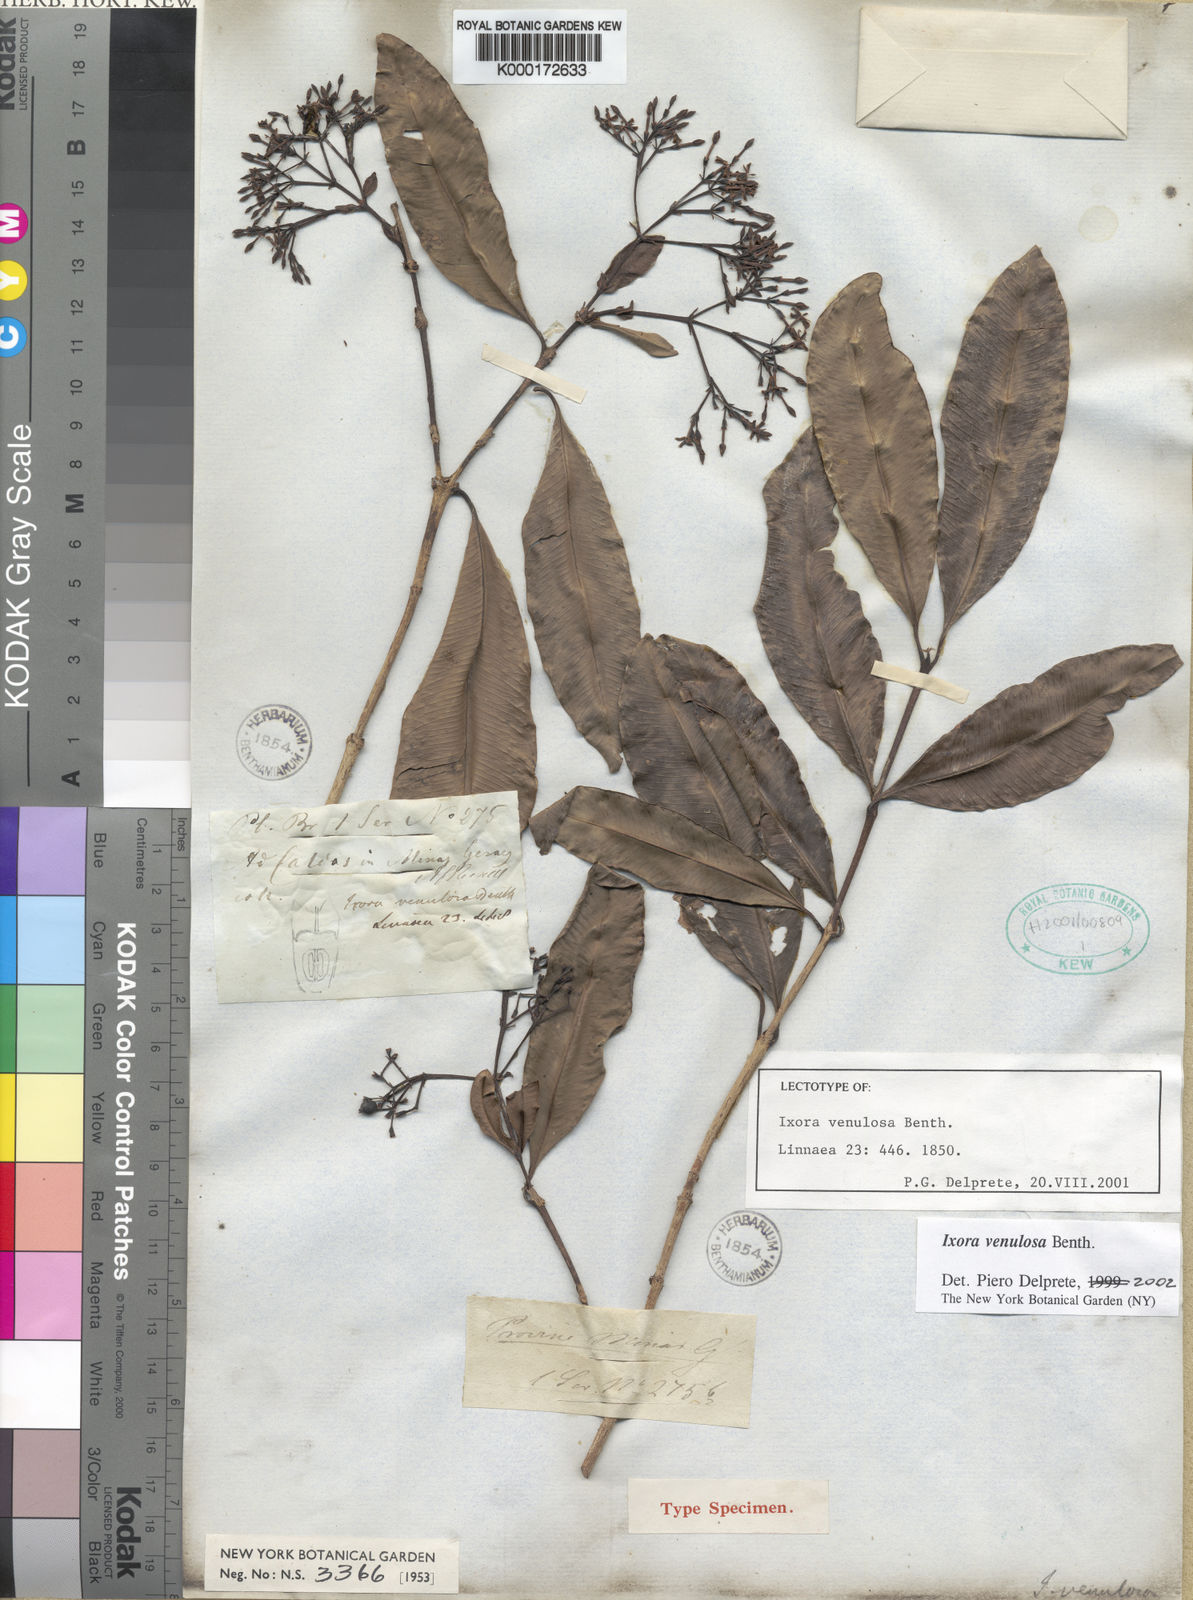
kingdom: Plantae
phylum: Tracheophyta
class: Magnoliopsida
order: Gentianales
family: Rubiaceae
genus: Ixora
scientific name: Ixora venulosa
